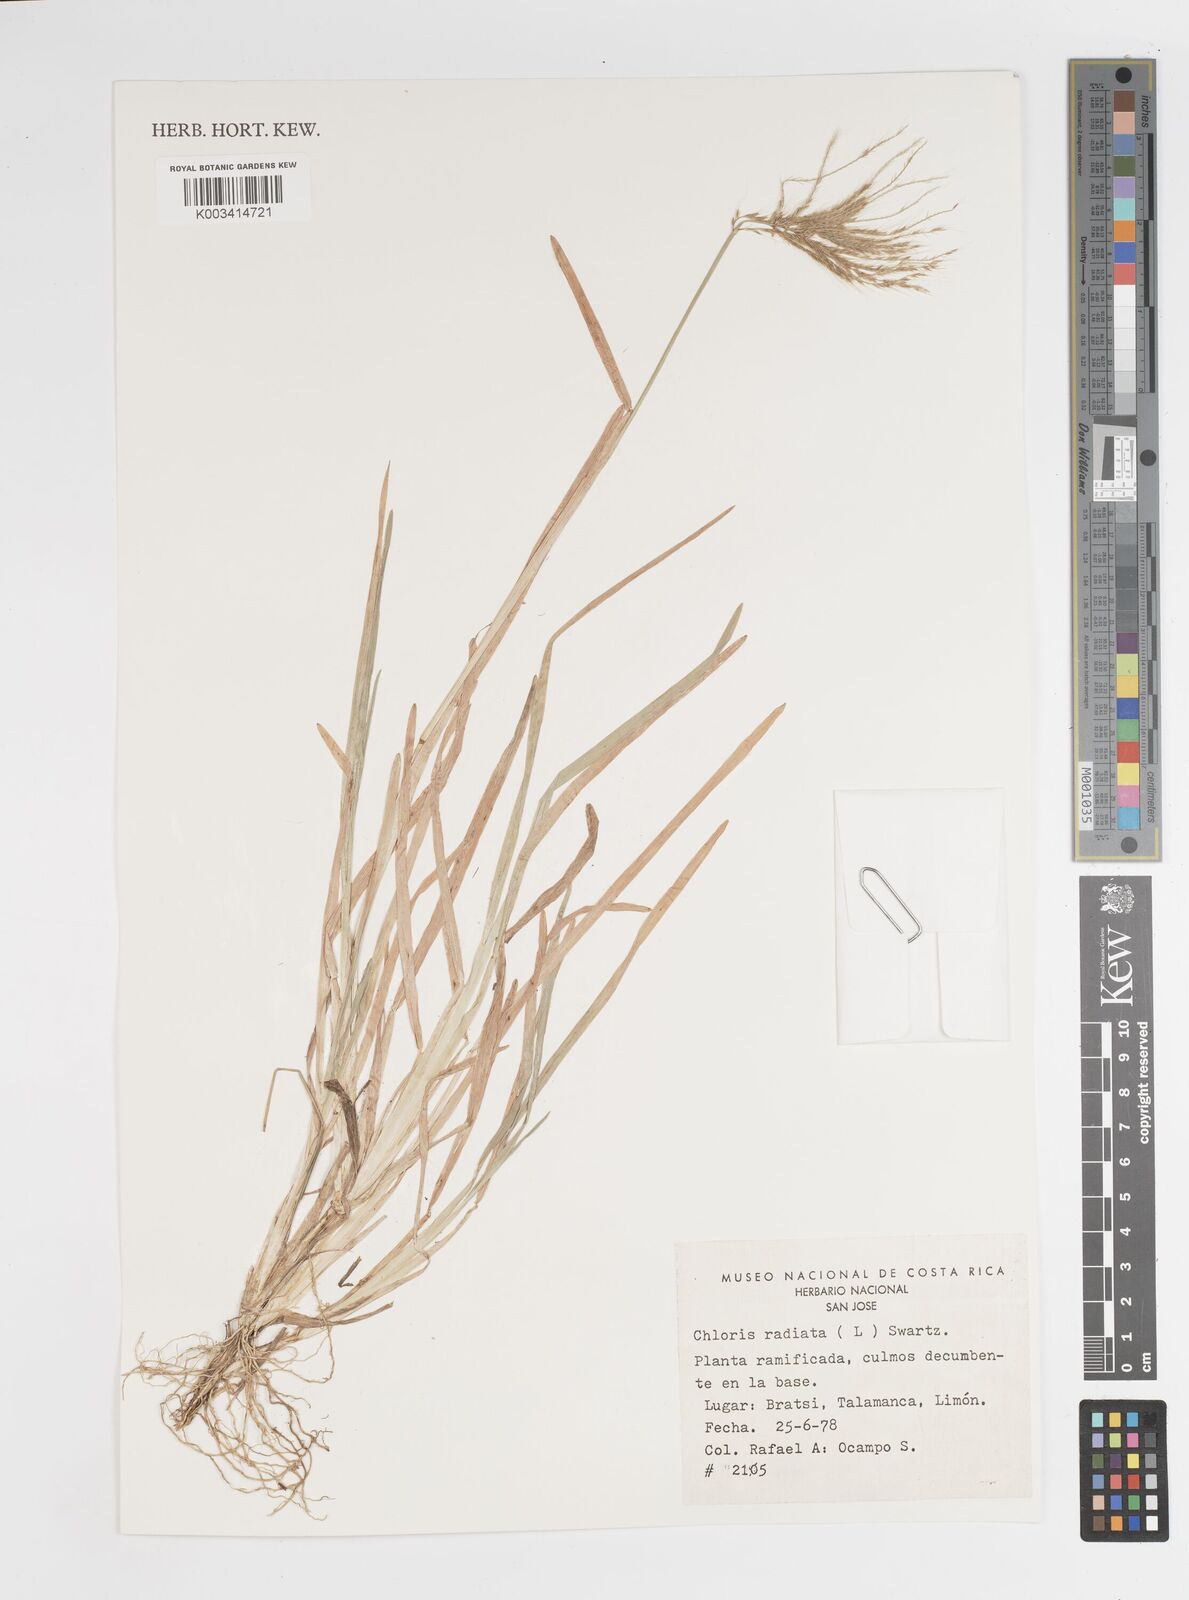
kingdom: Plantae
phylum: Tracheophyta
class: Liliopsida
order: Poales
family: Poaceae
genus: Chloris
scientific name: Chloris radiata
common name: Radiate fingergrass
